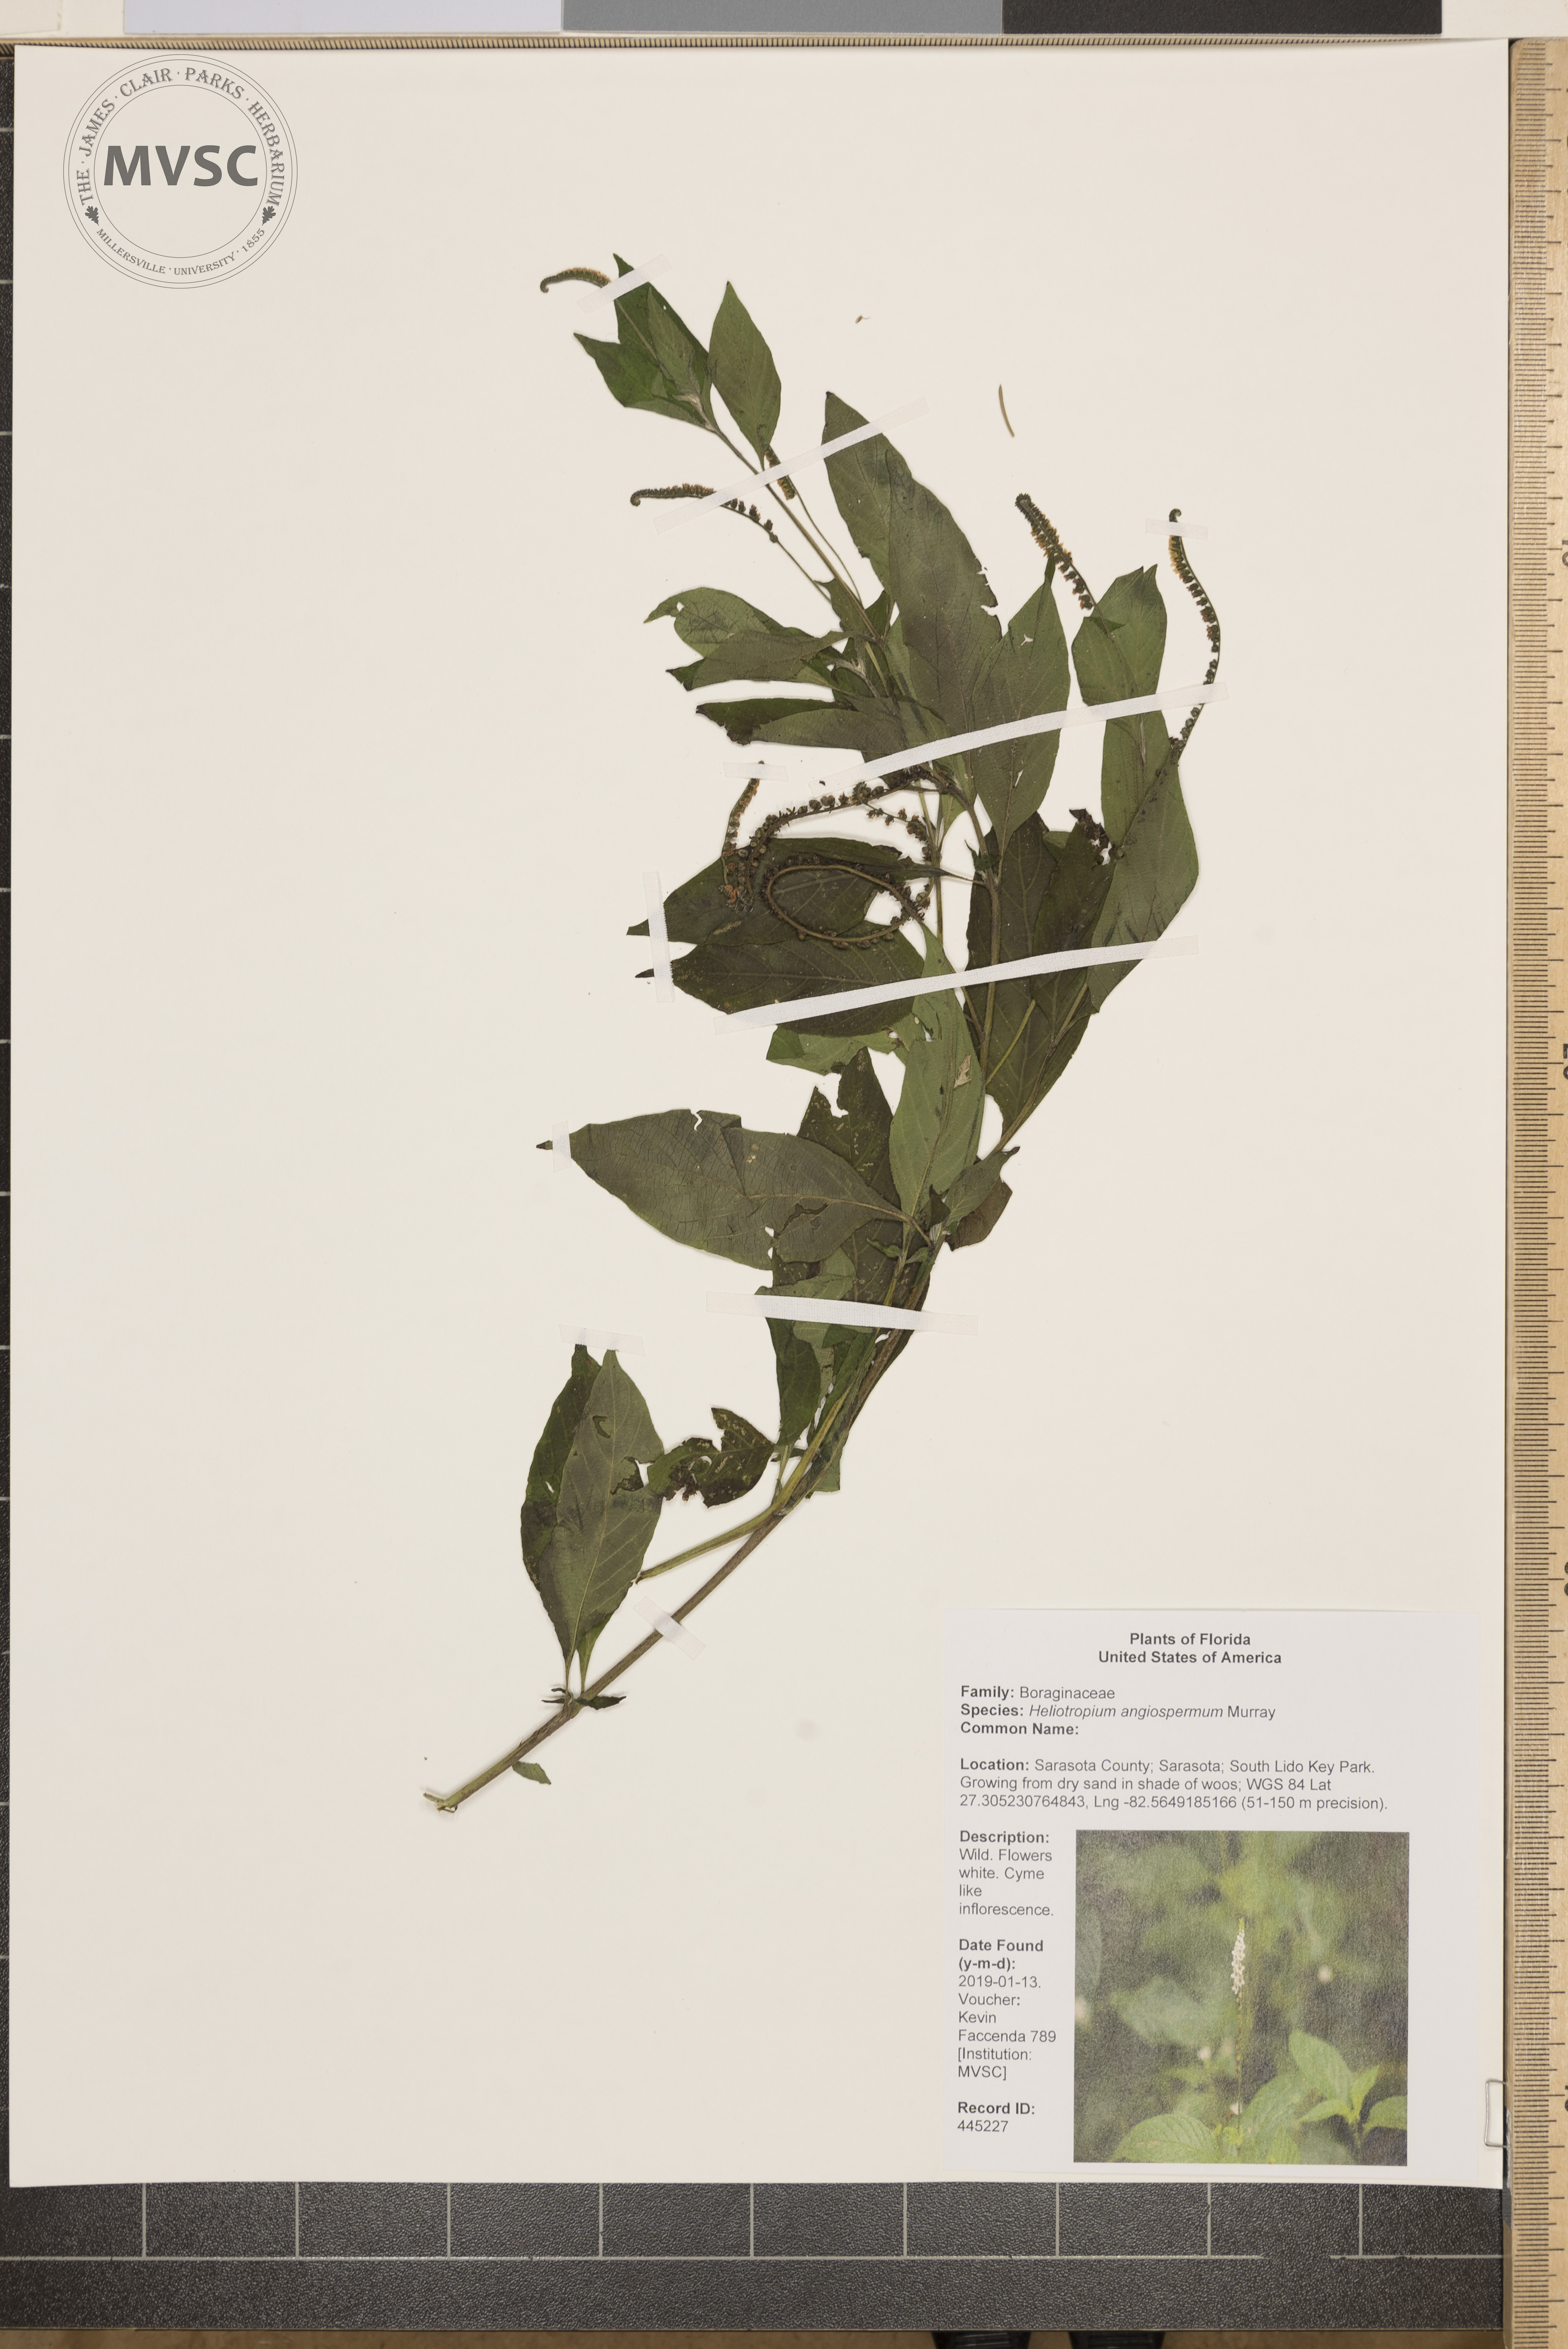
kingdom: Plantae
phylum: Tracheophyta
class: Magnoliopsida
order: Boraginales
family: Heliotropiaceae
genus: Heliotropium
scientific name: Heliotropium angiospermum
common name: Eye bright
